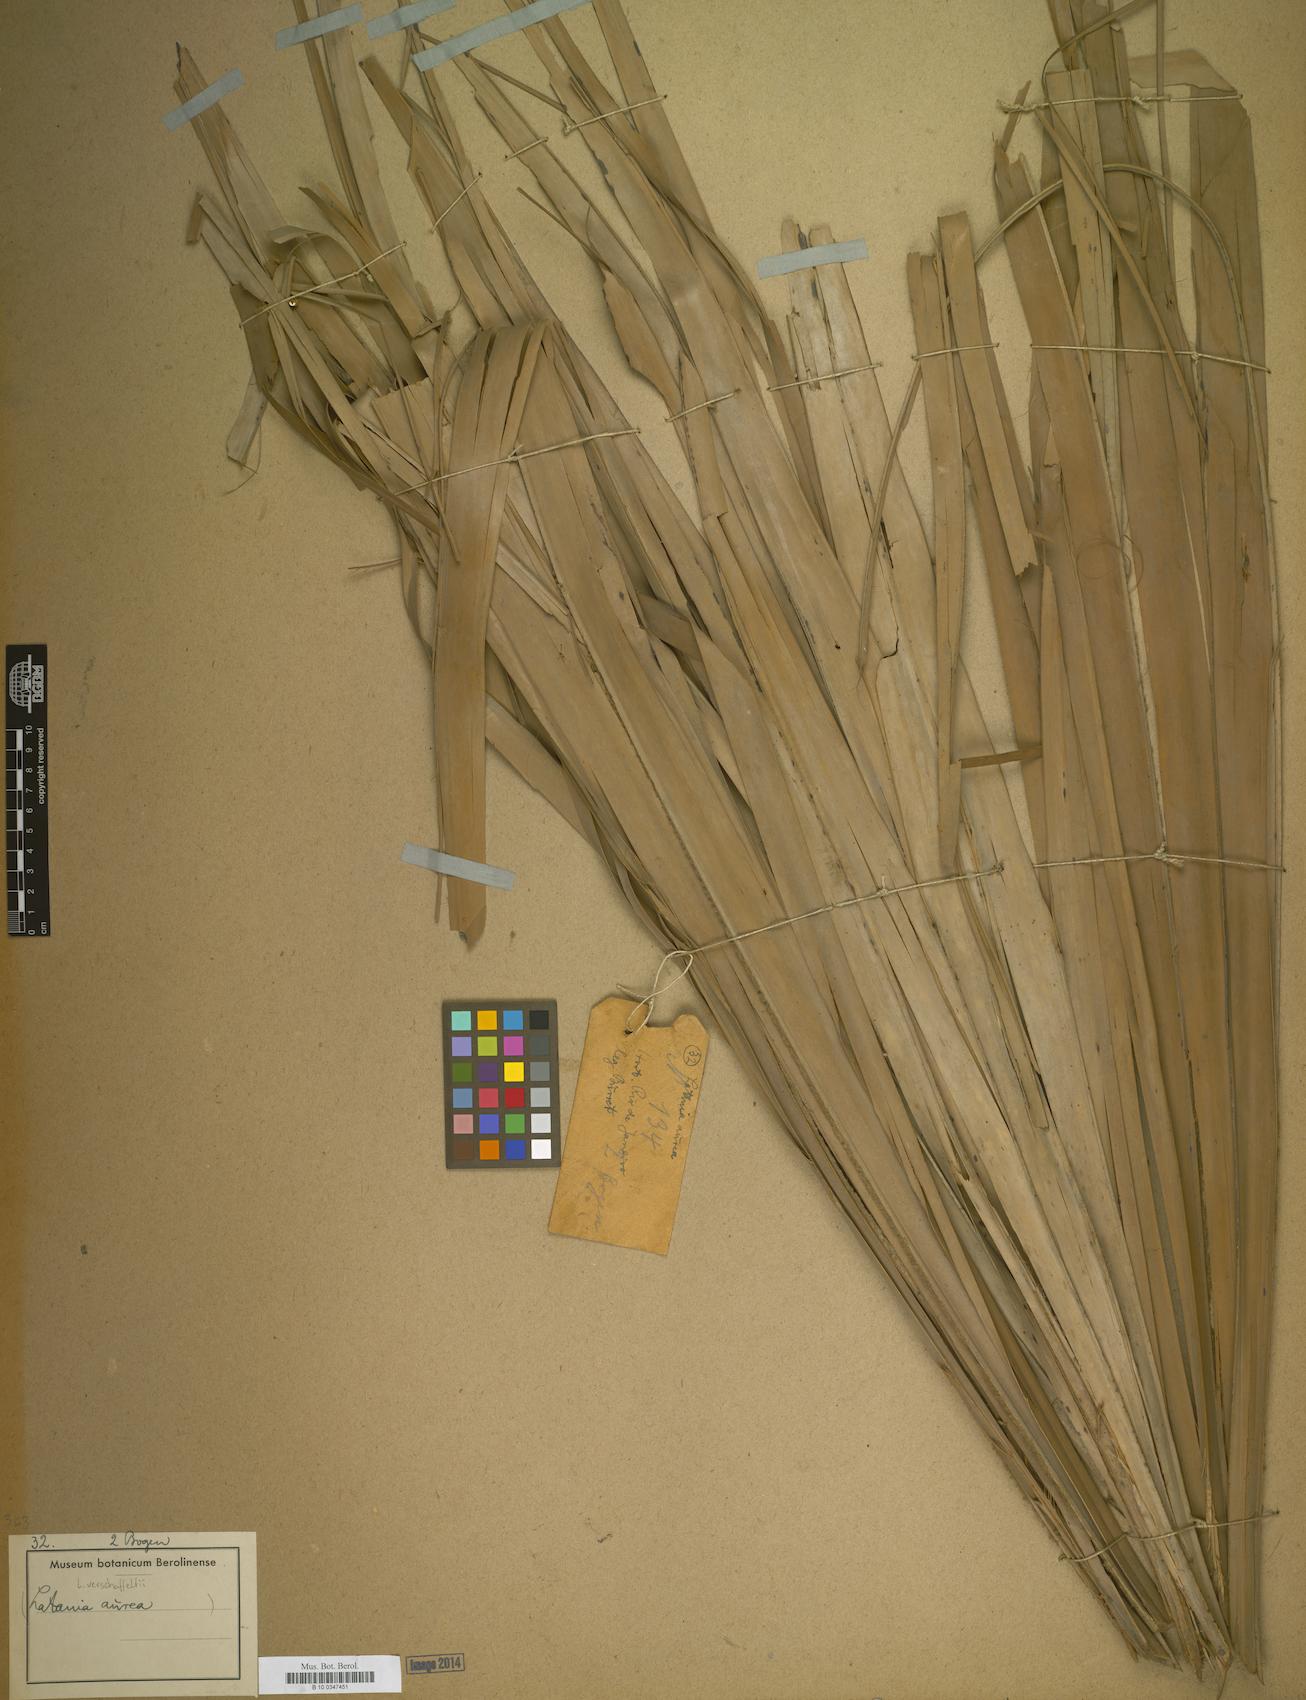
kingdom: Plantae
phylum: Tracheophyta
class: Liliopsida
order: Arecales
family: Arecaceae
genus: Latania
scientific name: Latania verschaffeltii
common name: Yellow latan
